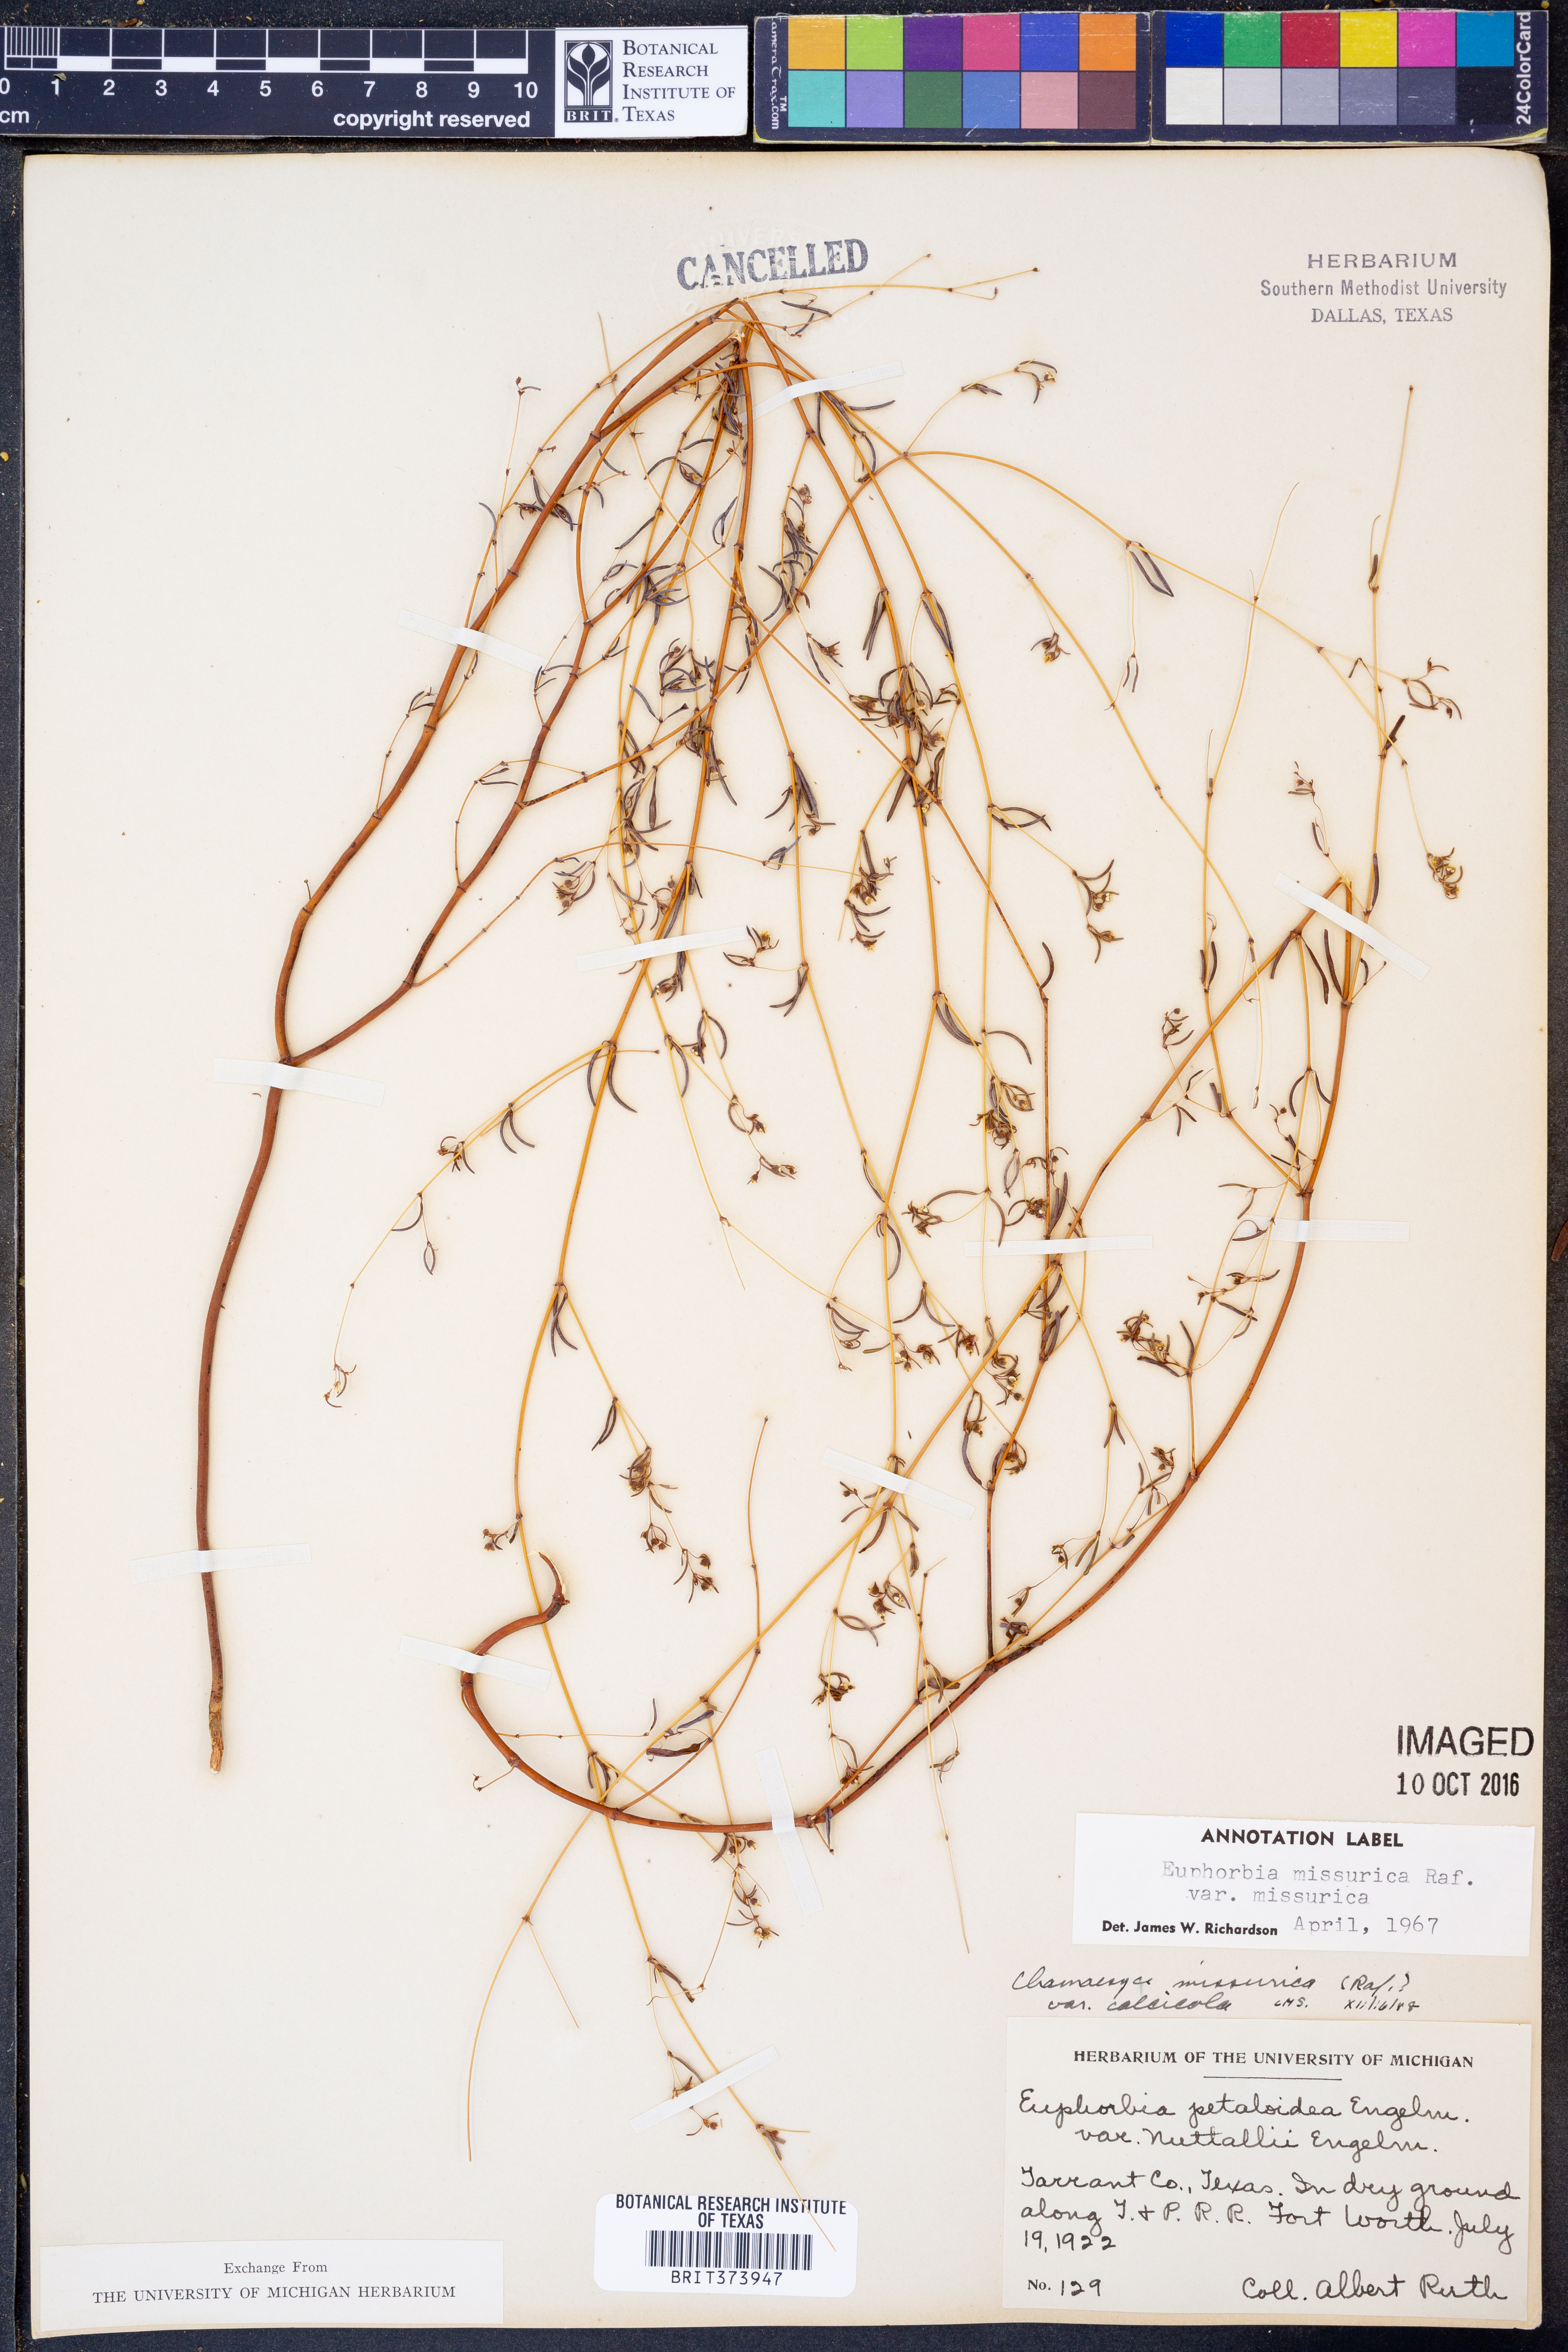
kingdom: Plantae
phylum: Tracheophyta
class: Magnoliopsida
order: Malpighiales
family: Euphorbiaceae
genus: Euphorbia
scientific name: Euphorbia missurica
